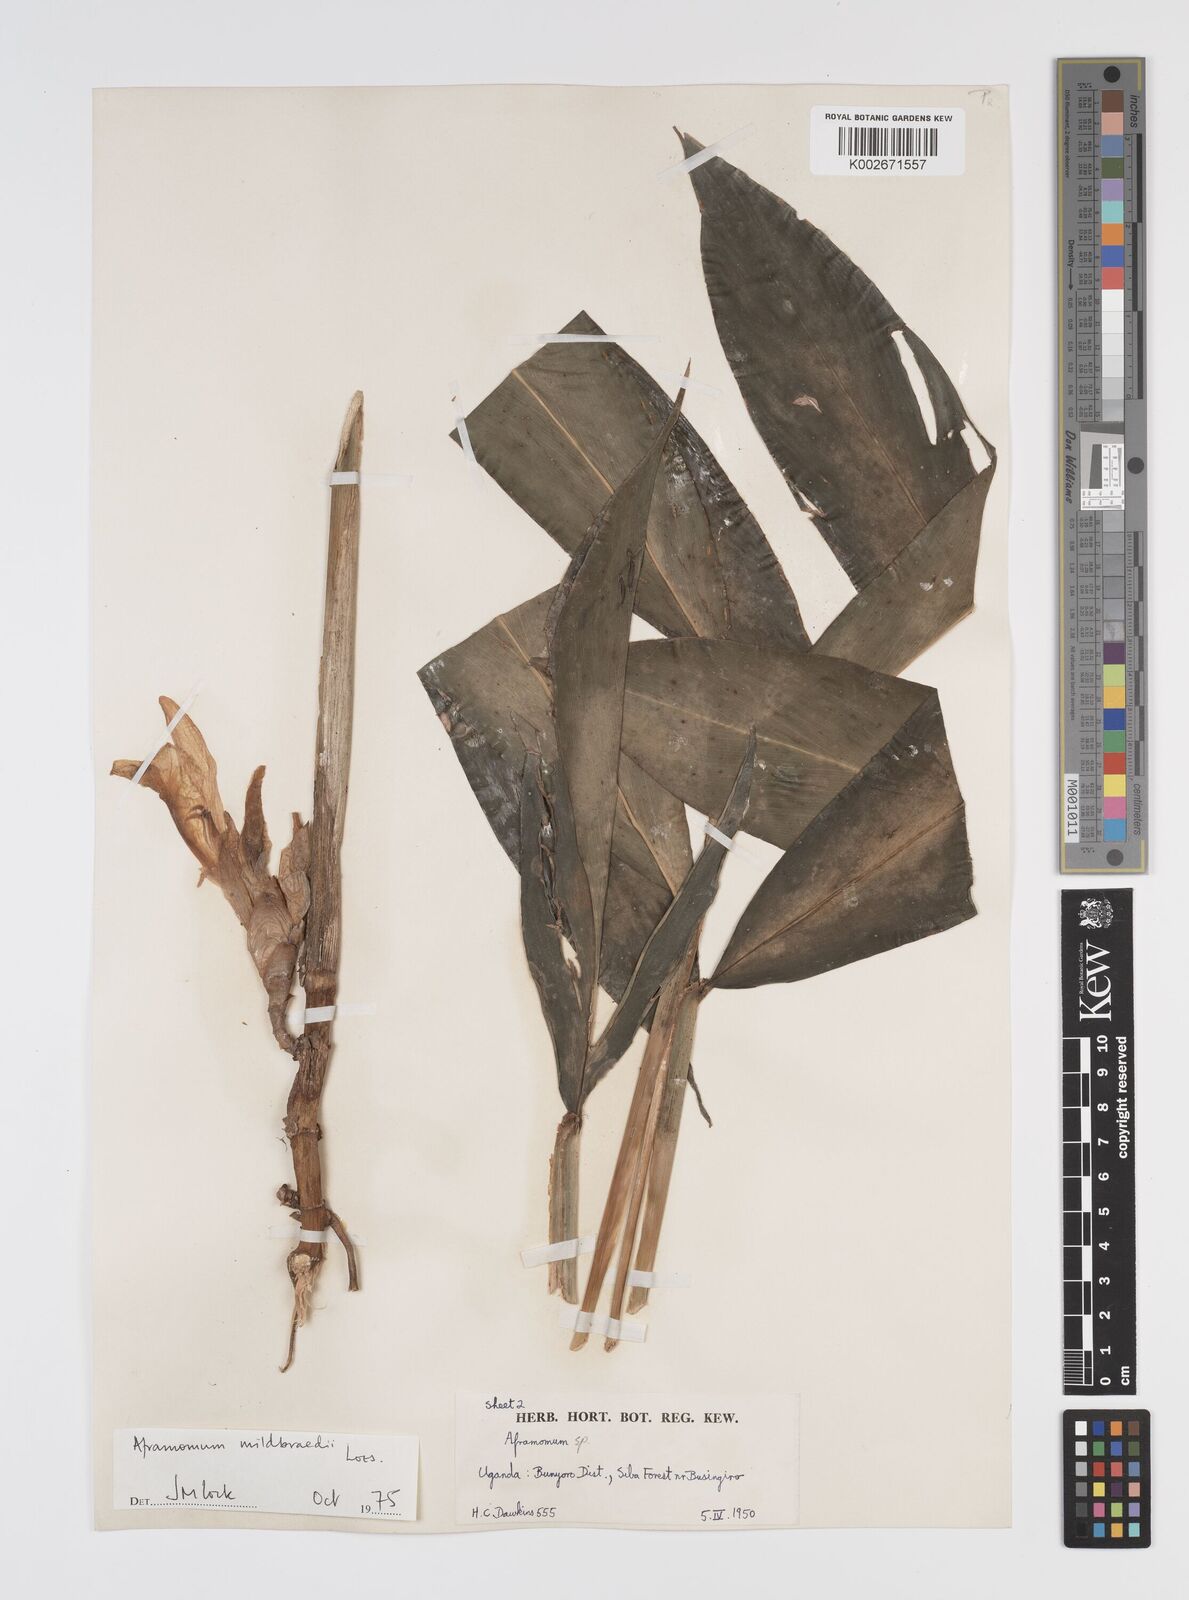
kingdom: Plantae
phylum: Tracheophyta
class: Liliopsida
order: Zingiberales
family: Zingiberaceae
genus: Aframomum
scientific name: Aframomum mildbraedii
